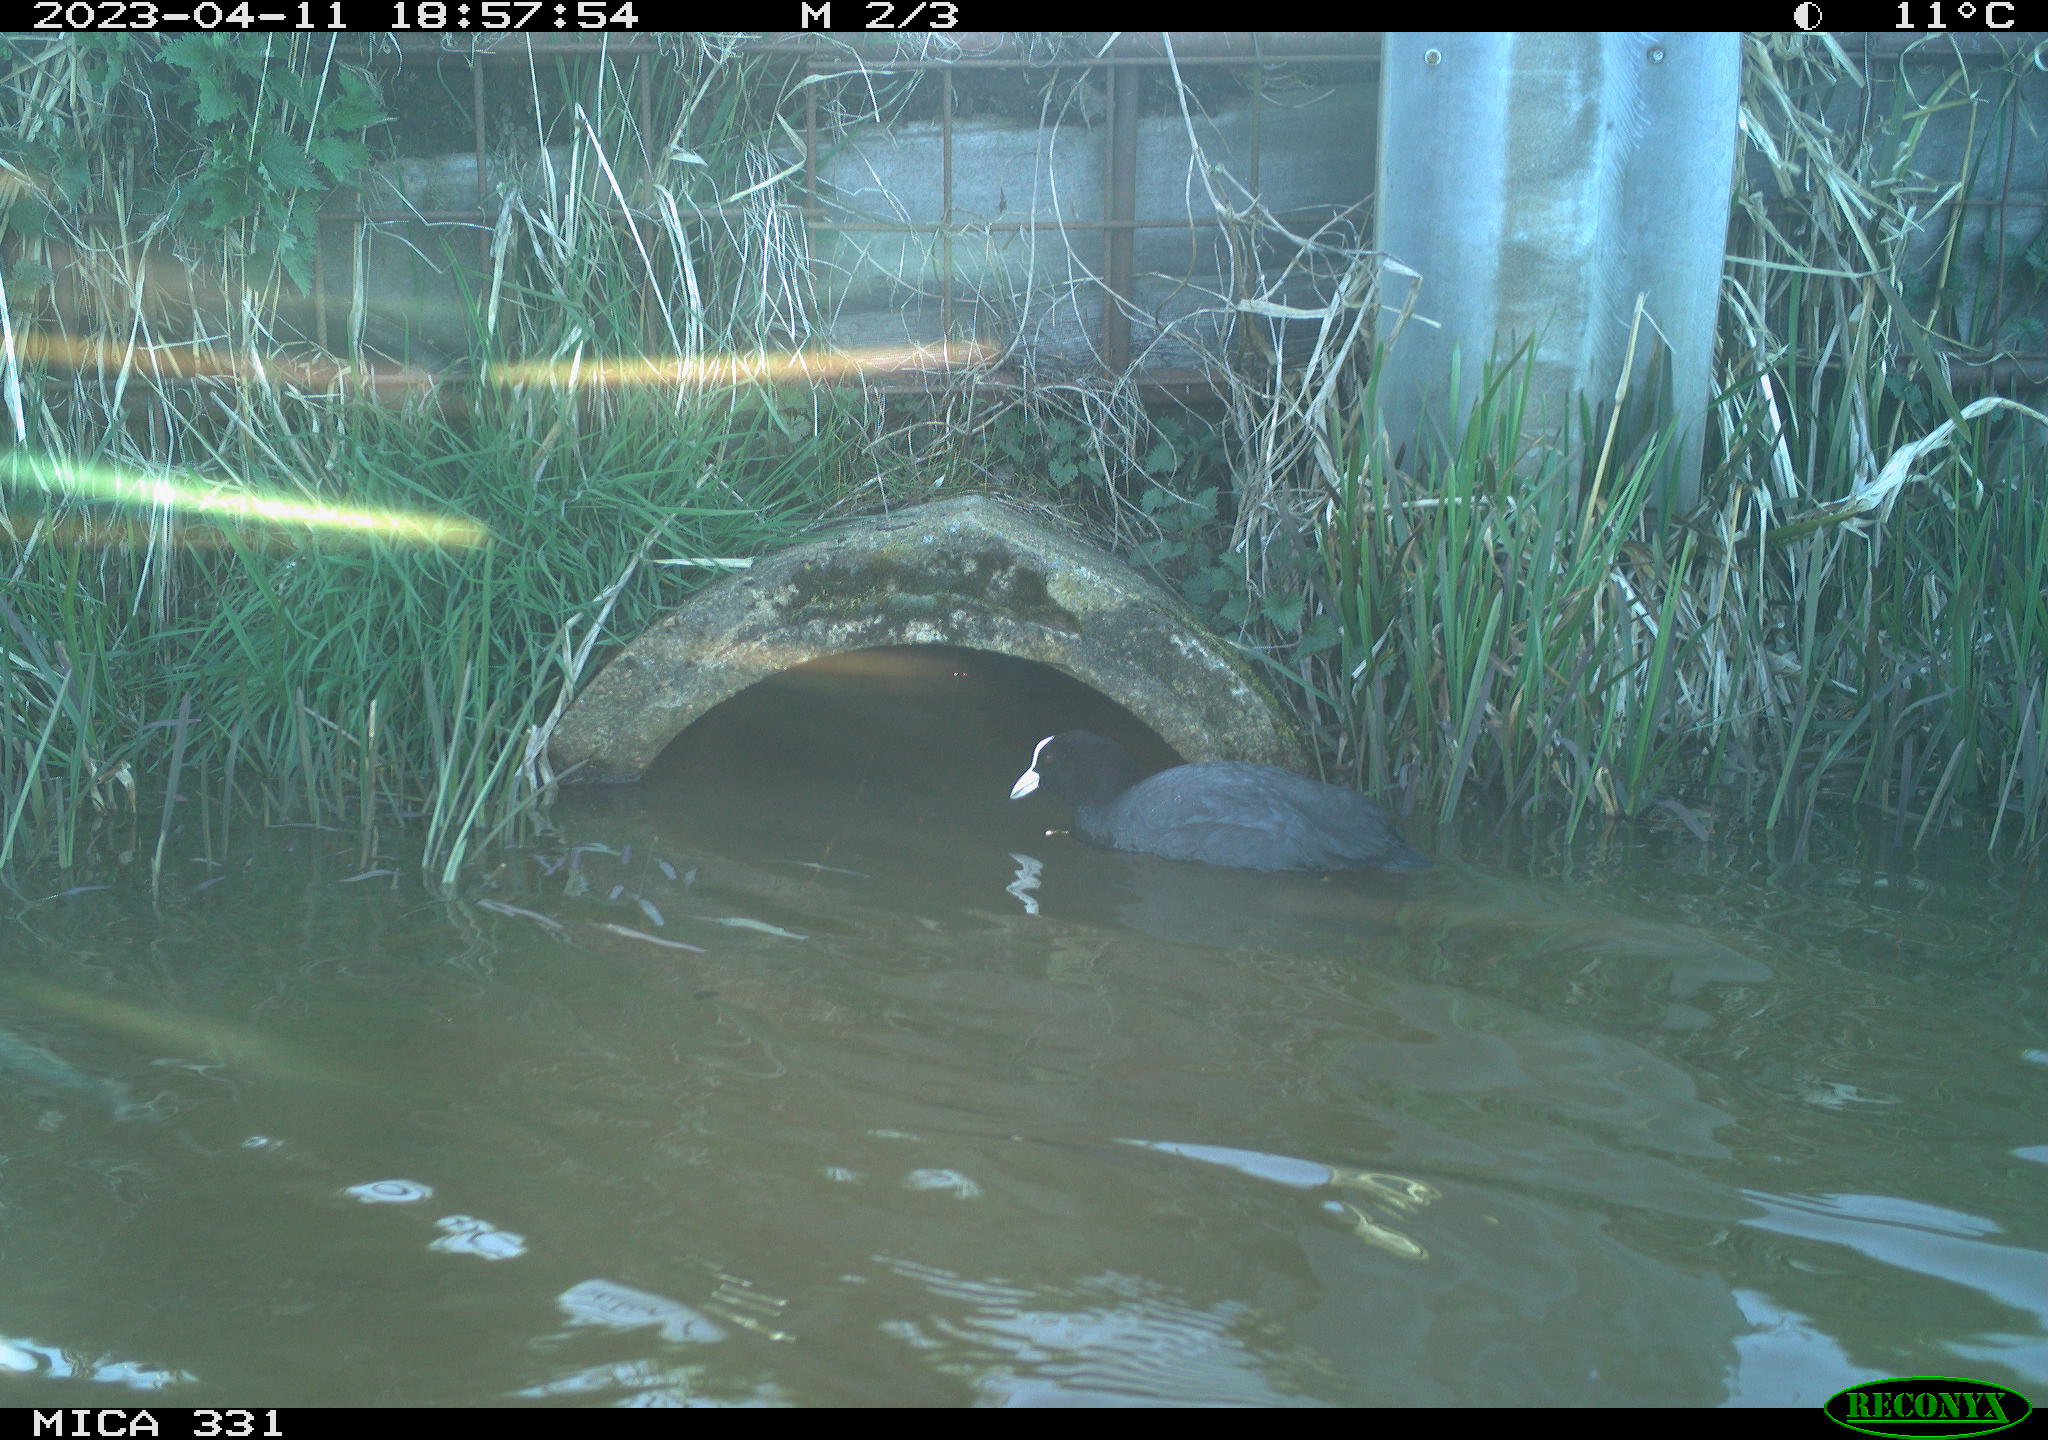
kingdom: Animalia
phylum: Chordata
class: Aves
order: Gruiformes
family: Rallidae
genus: Fulica
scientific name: Fulica atra
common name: Eurasian coot
